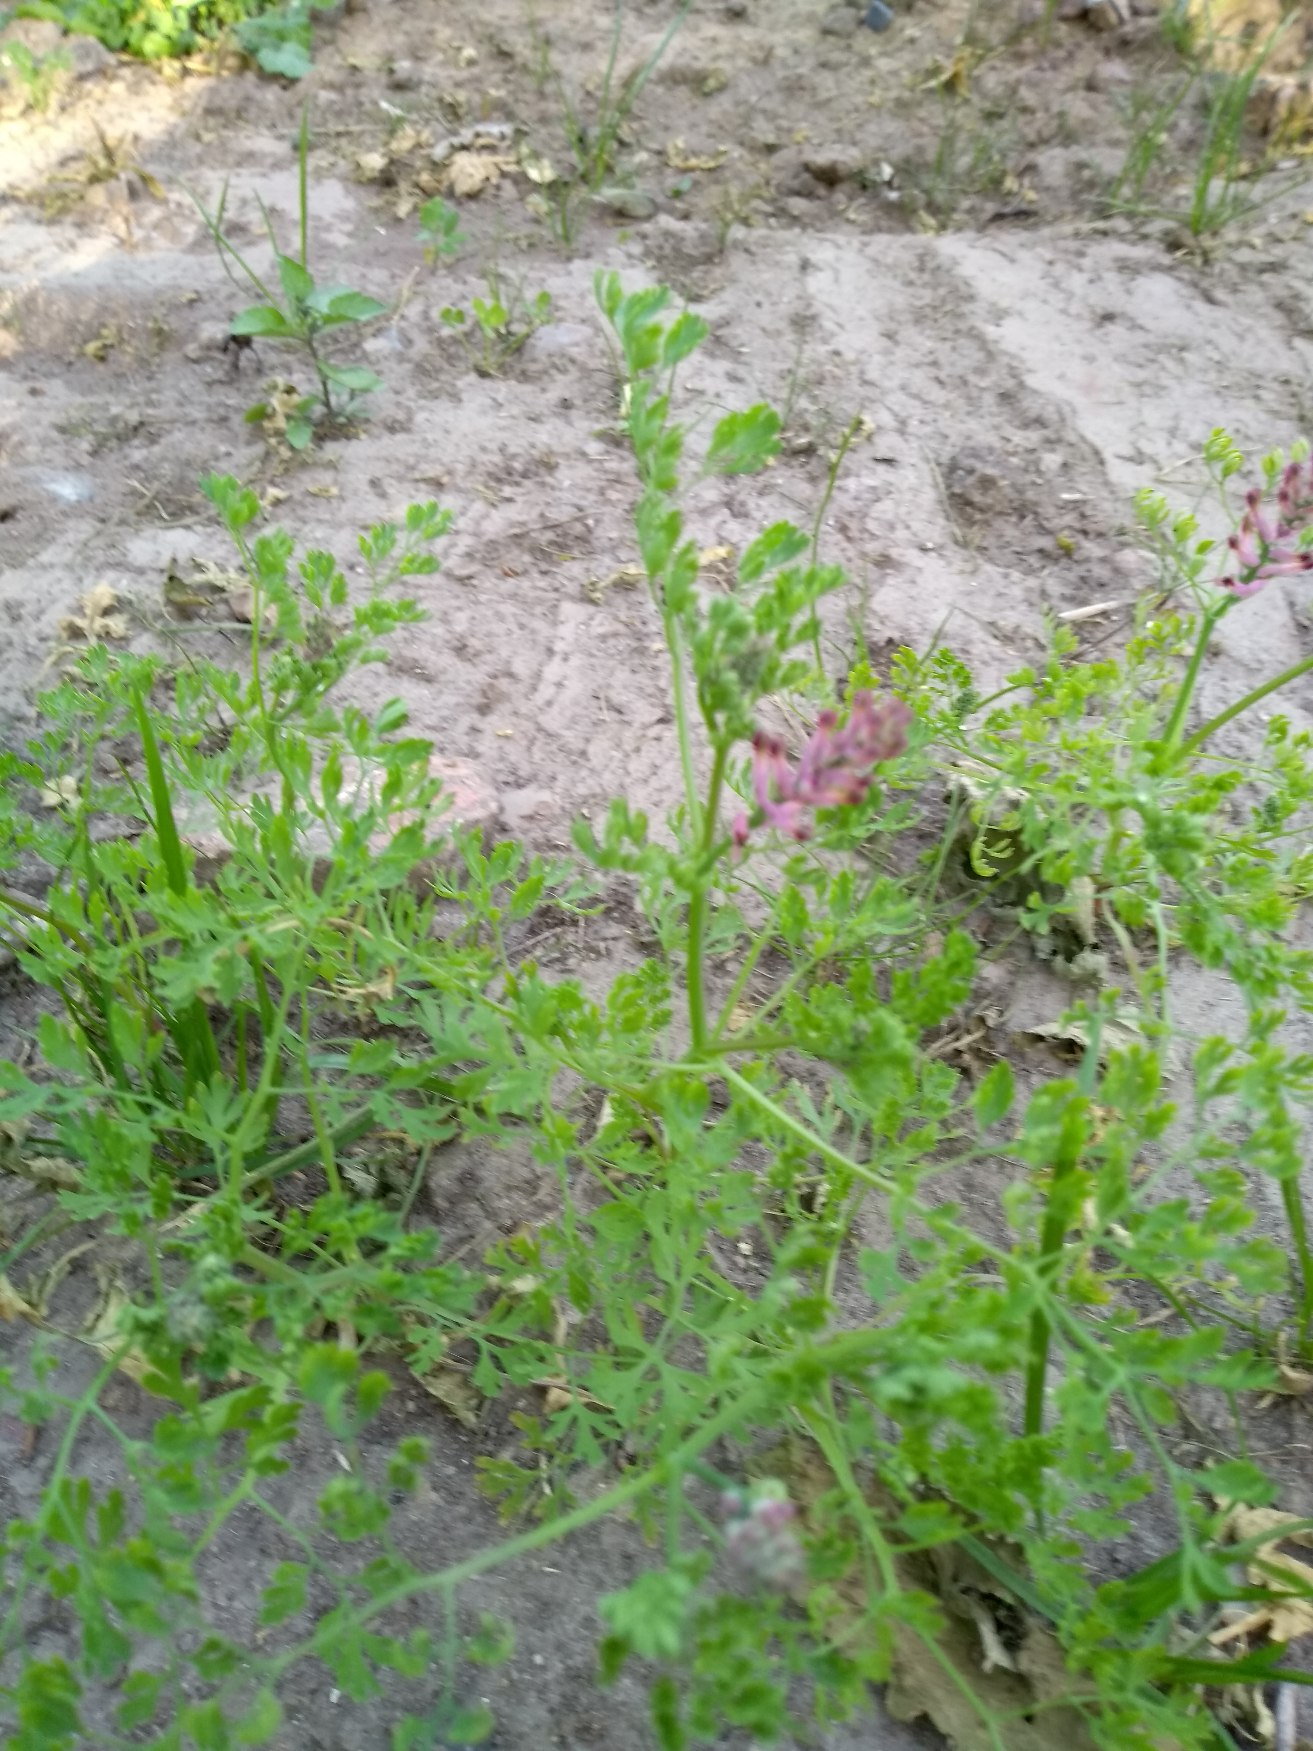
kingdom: Plantae
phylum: Tracheophyta
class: Magnoliopsida
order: Ranunculales
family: Papaveraceae
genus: Fumaria
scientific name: Fumaria officinalis
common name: Læge-jordrøg
